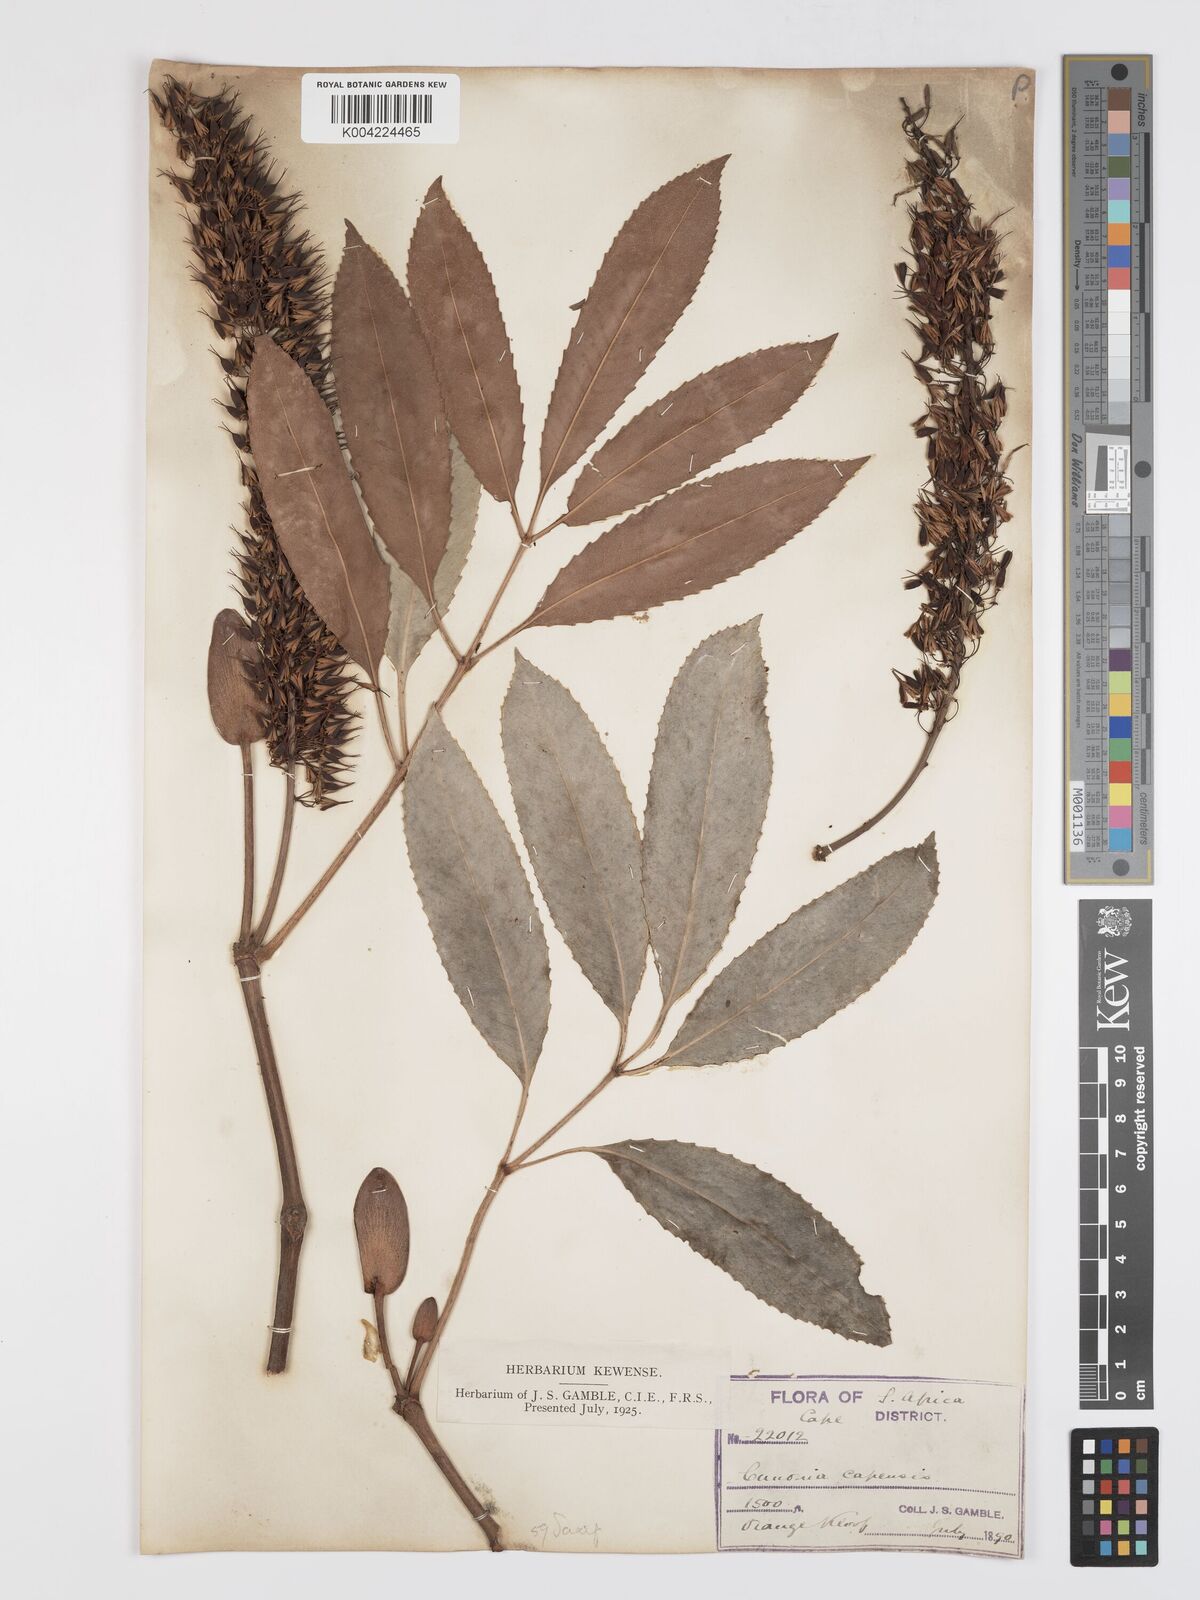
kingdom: Plantae
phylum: Tracheophyta
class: Magnoliopsida
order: Oxalidales
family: Cunoniaceae
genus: Cunonia
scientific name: Cunonia capensis
